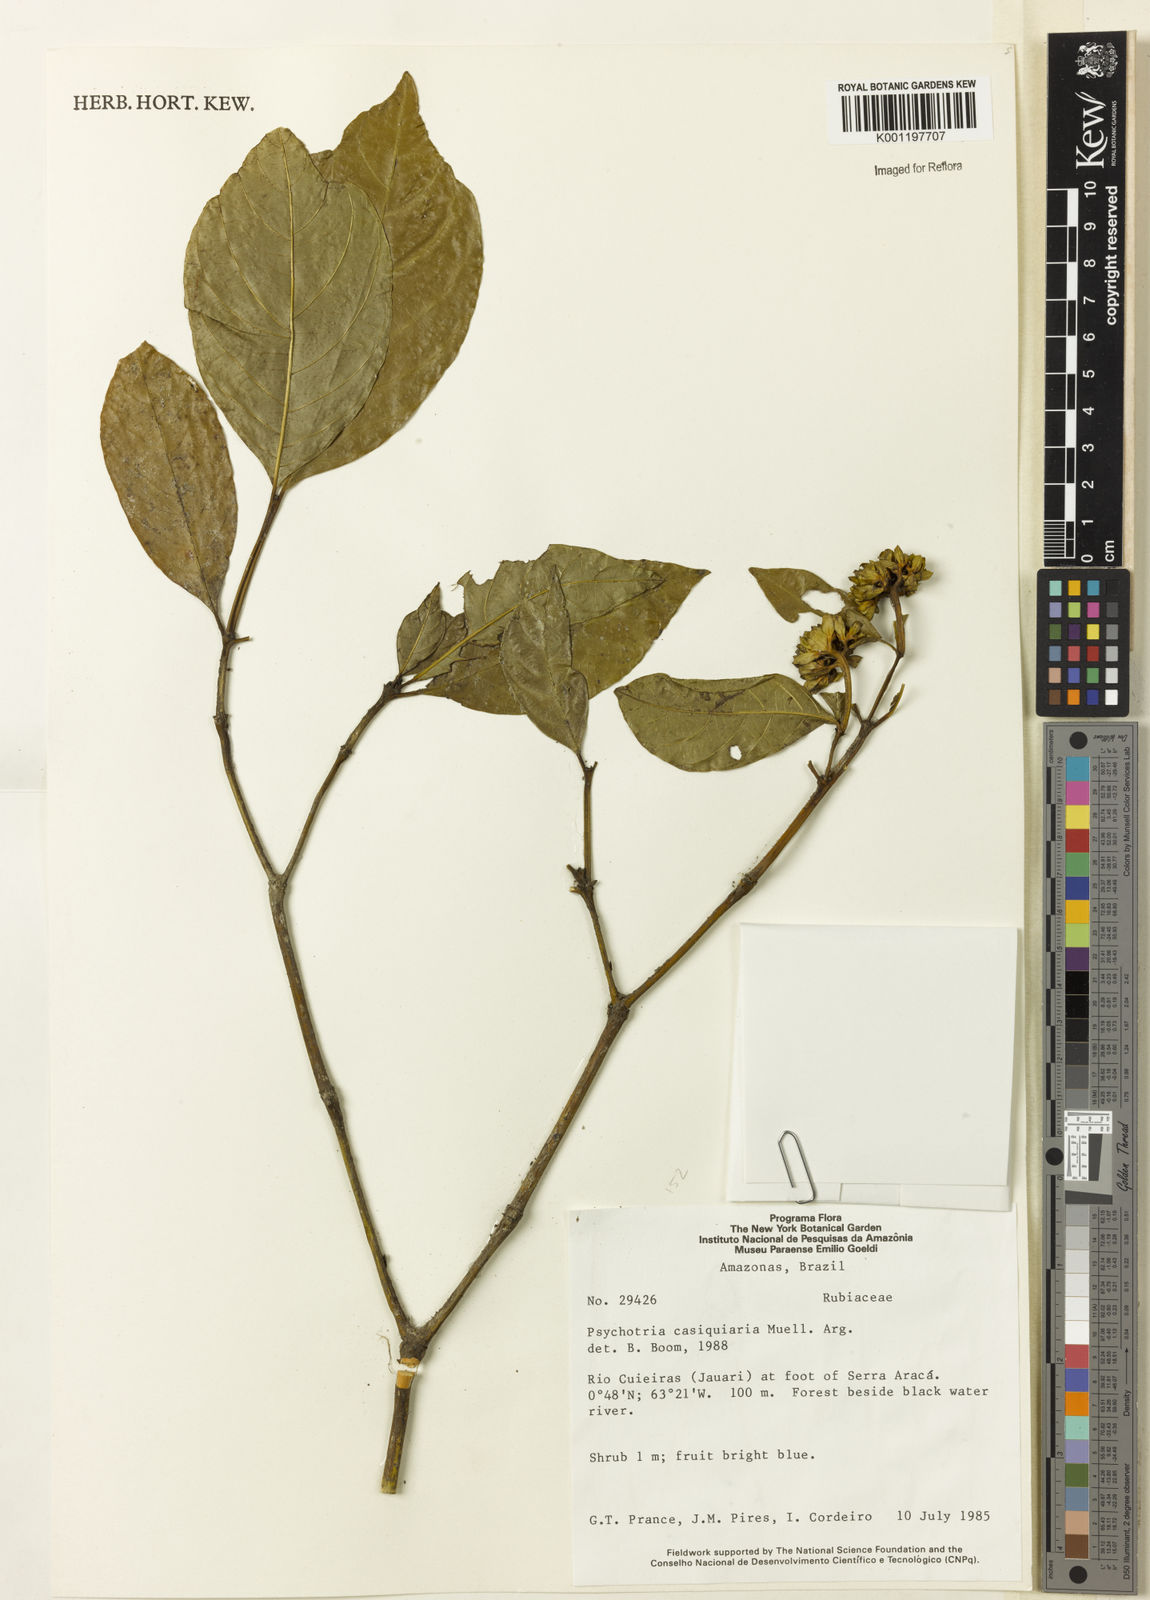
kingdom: Plantae
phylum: Tracheophyta
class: Magnoliopsida
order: Gentianales
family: Rubiaceae
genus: Psychotria
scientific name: Psychotria
